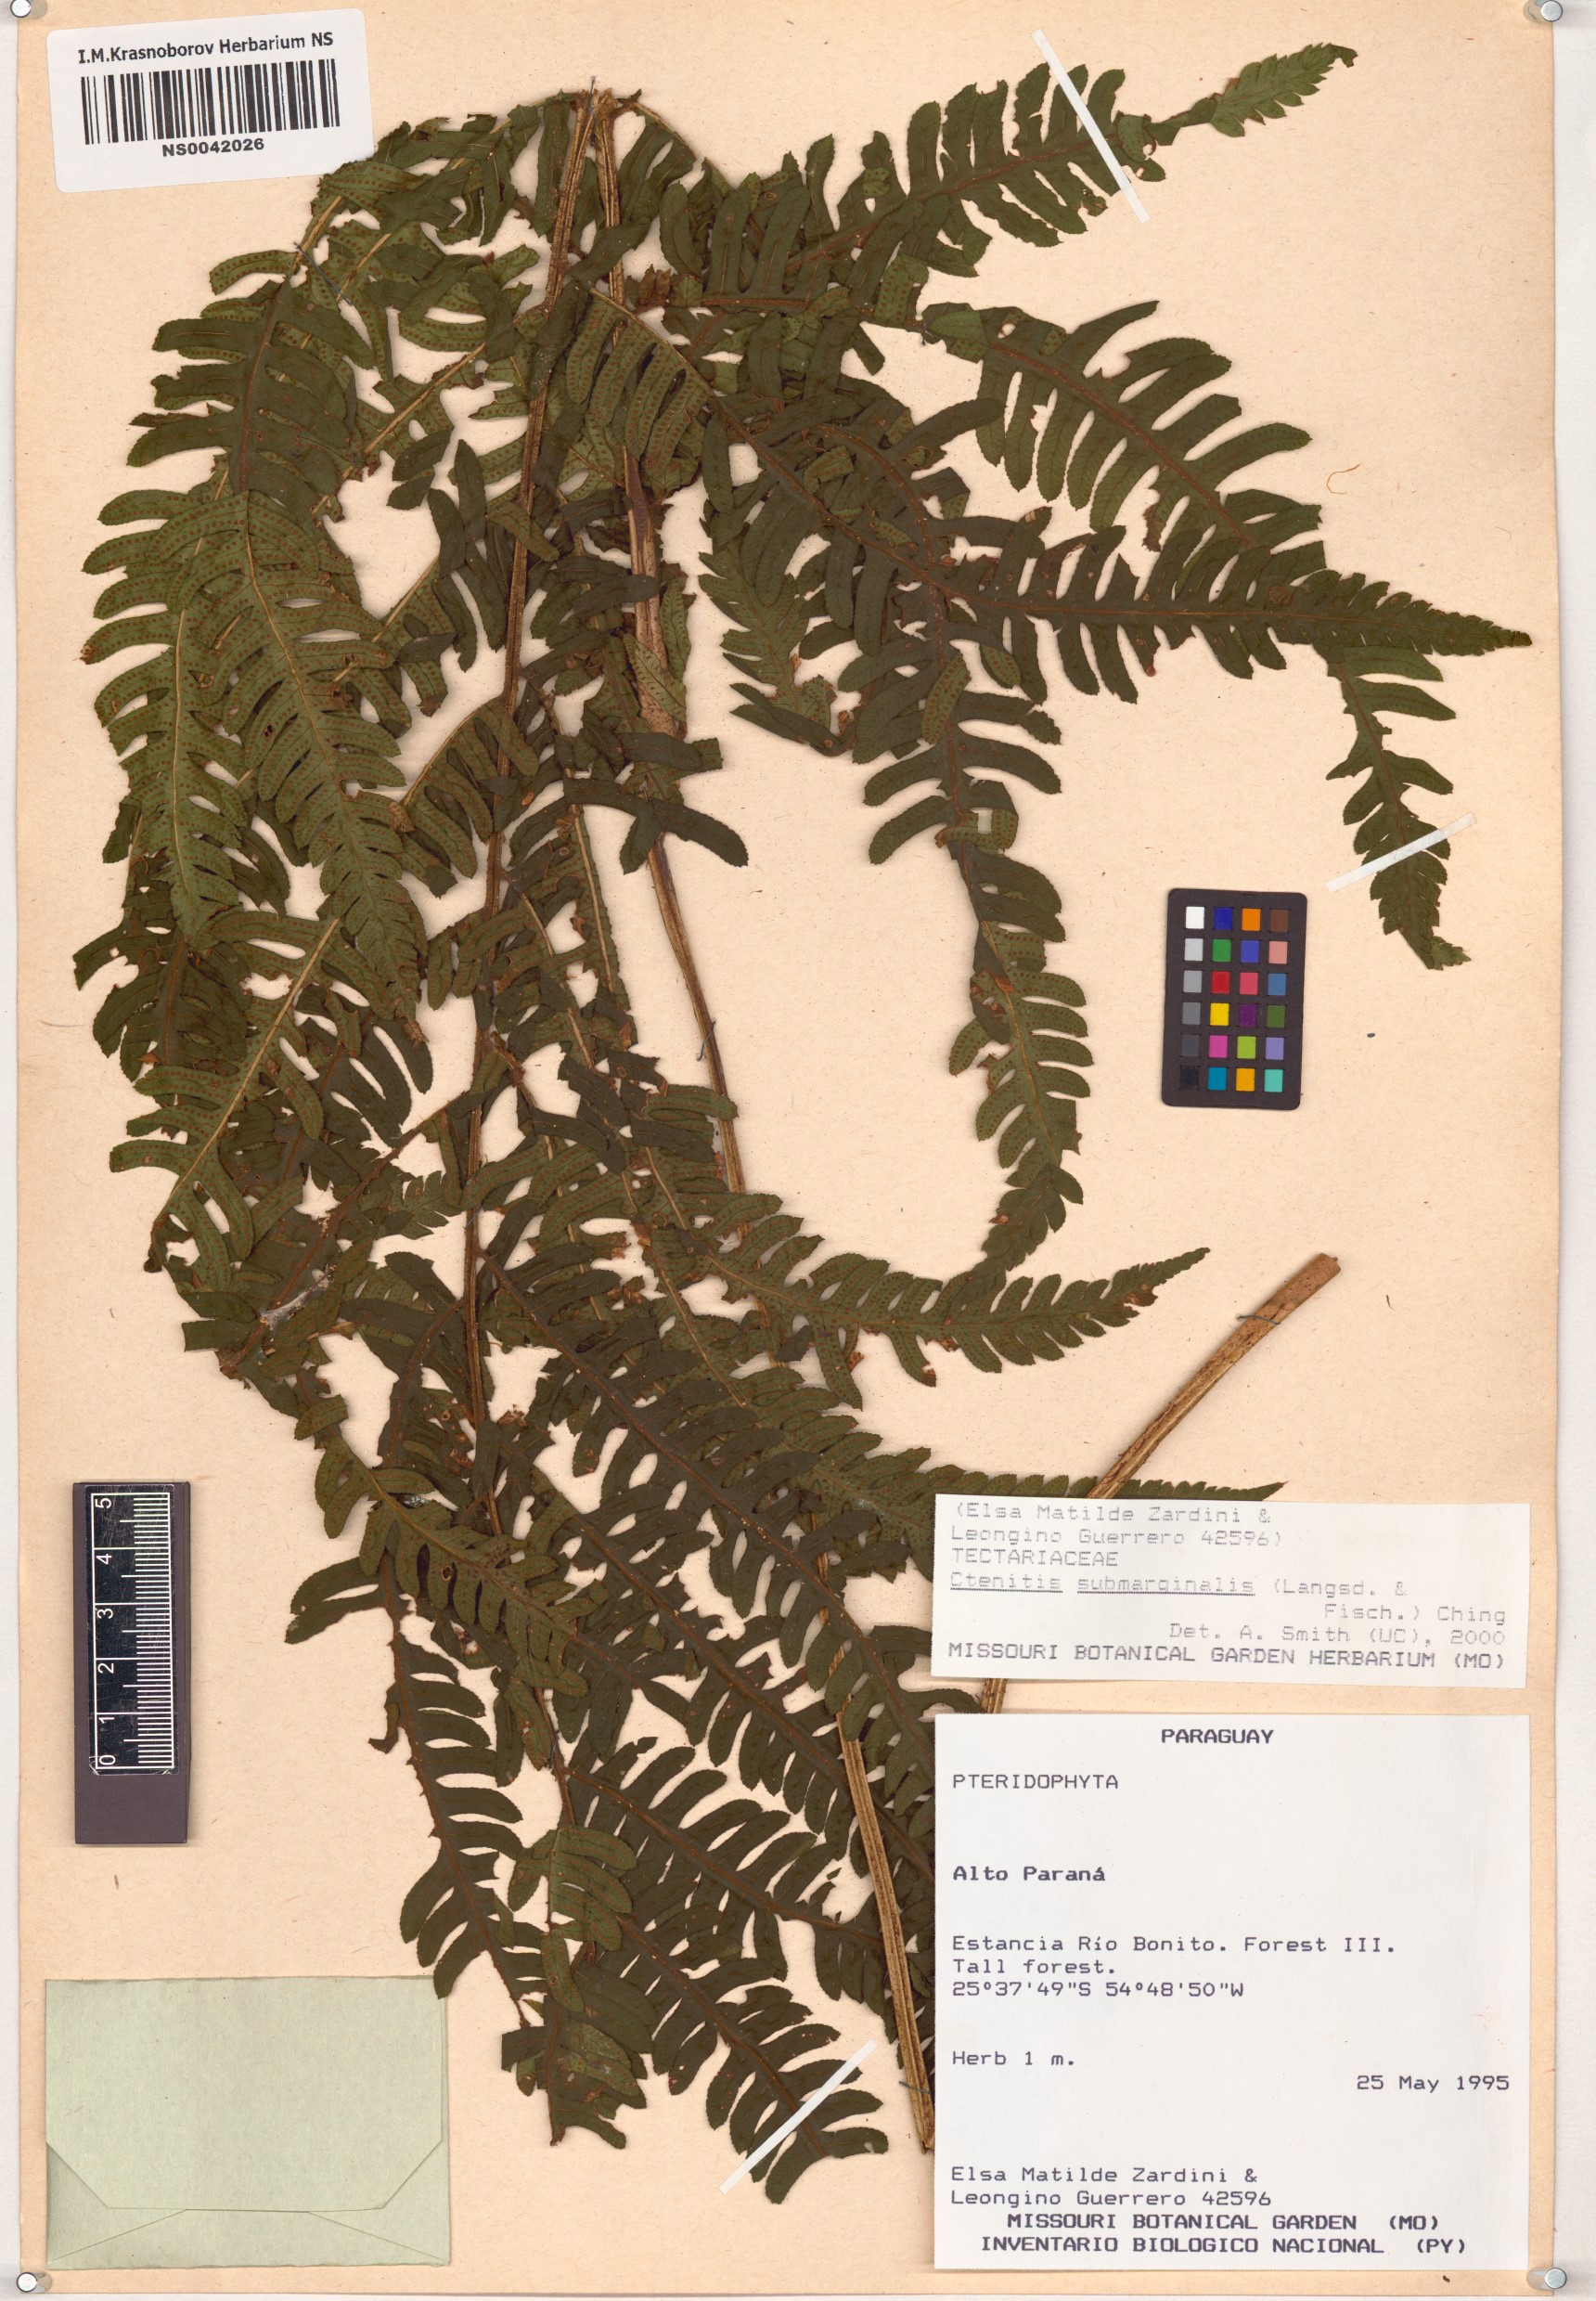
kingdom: Plantae
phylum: Tracheophyta
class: Polypodiopsida
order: Polypodiales
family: Dryopteridaceae
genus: Ctenitis
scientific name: Ctenitis submarginalis
